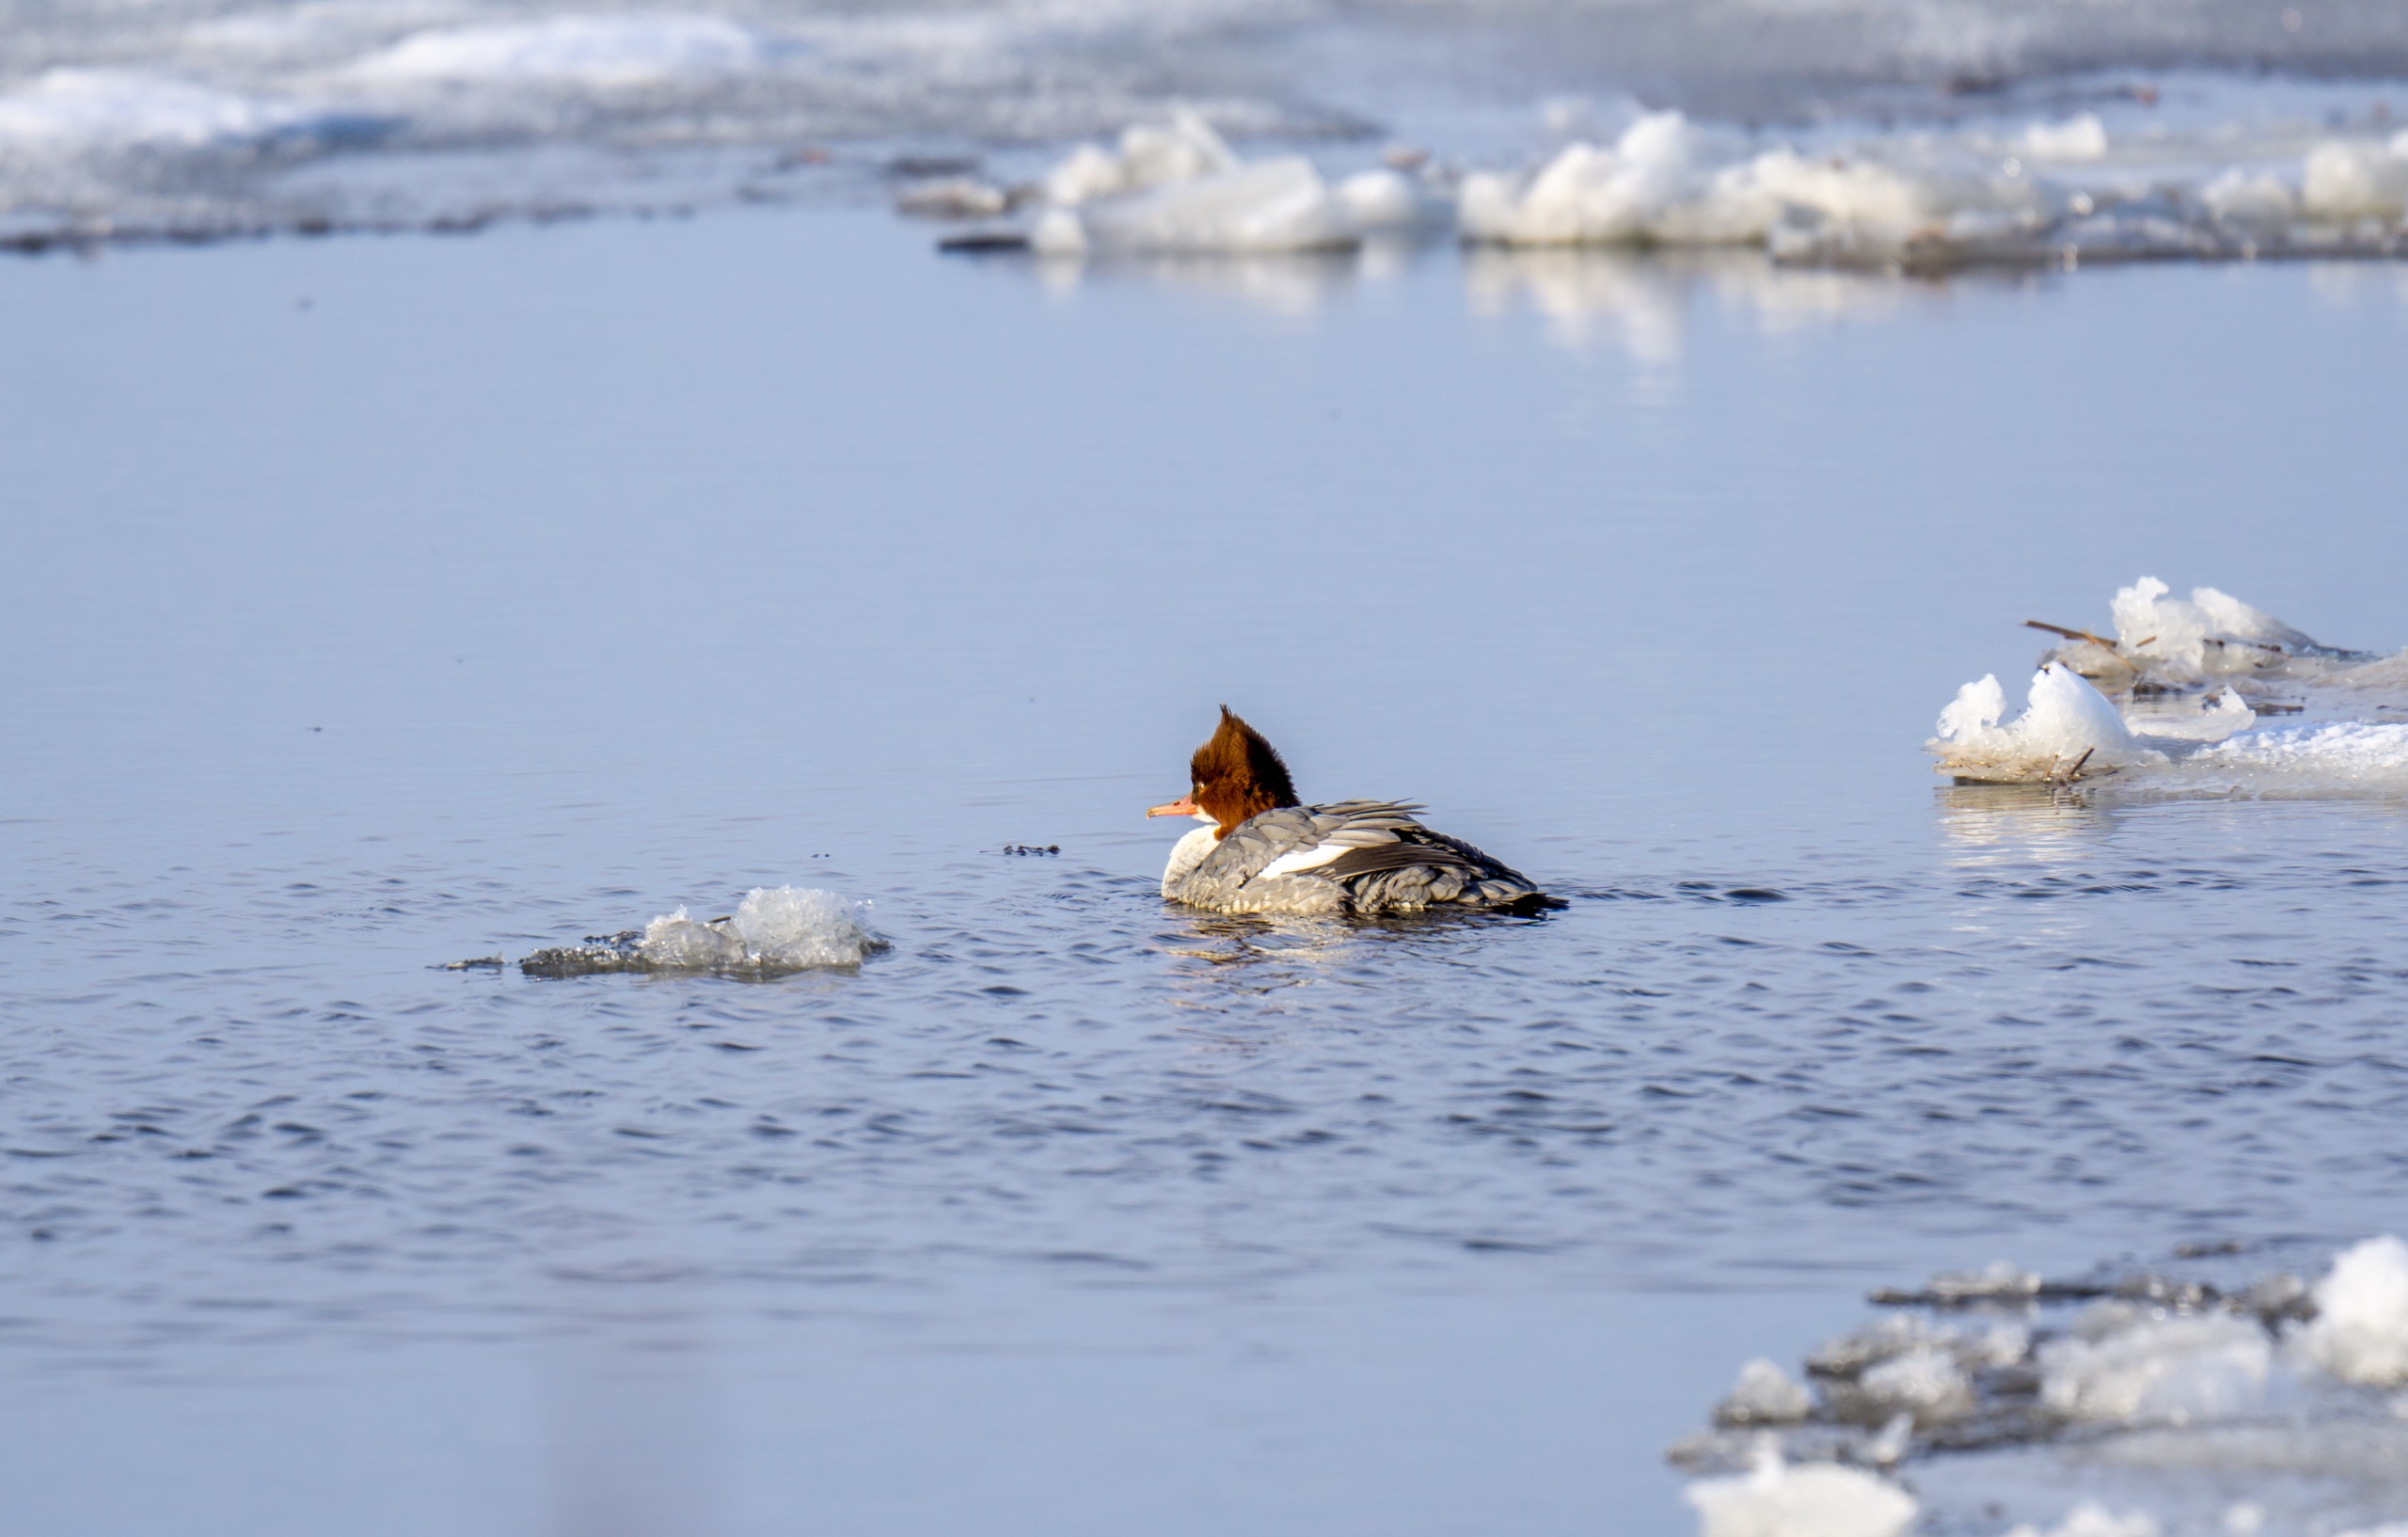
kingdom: Animalia
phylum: Chordata
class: Aves
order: Anseriformes
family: Anatidae
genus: Mergus
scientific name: Mergus merganser
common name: Stor skallesluger
